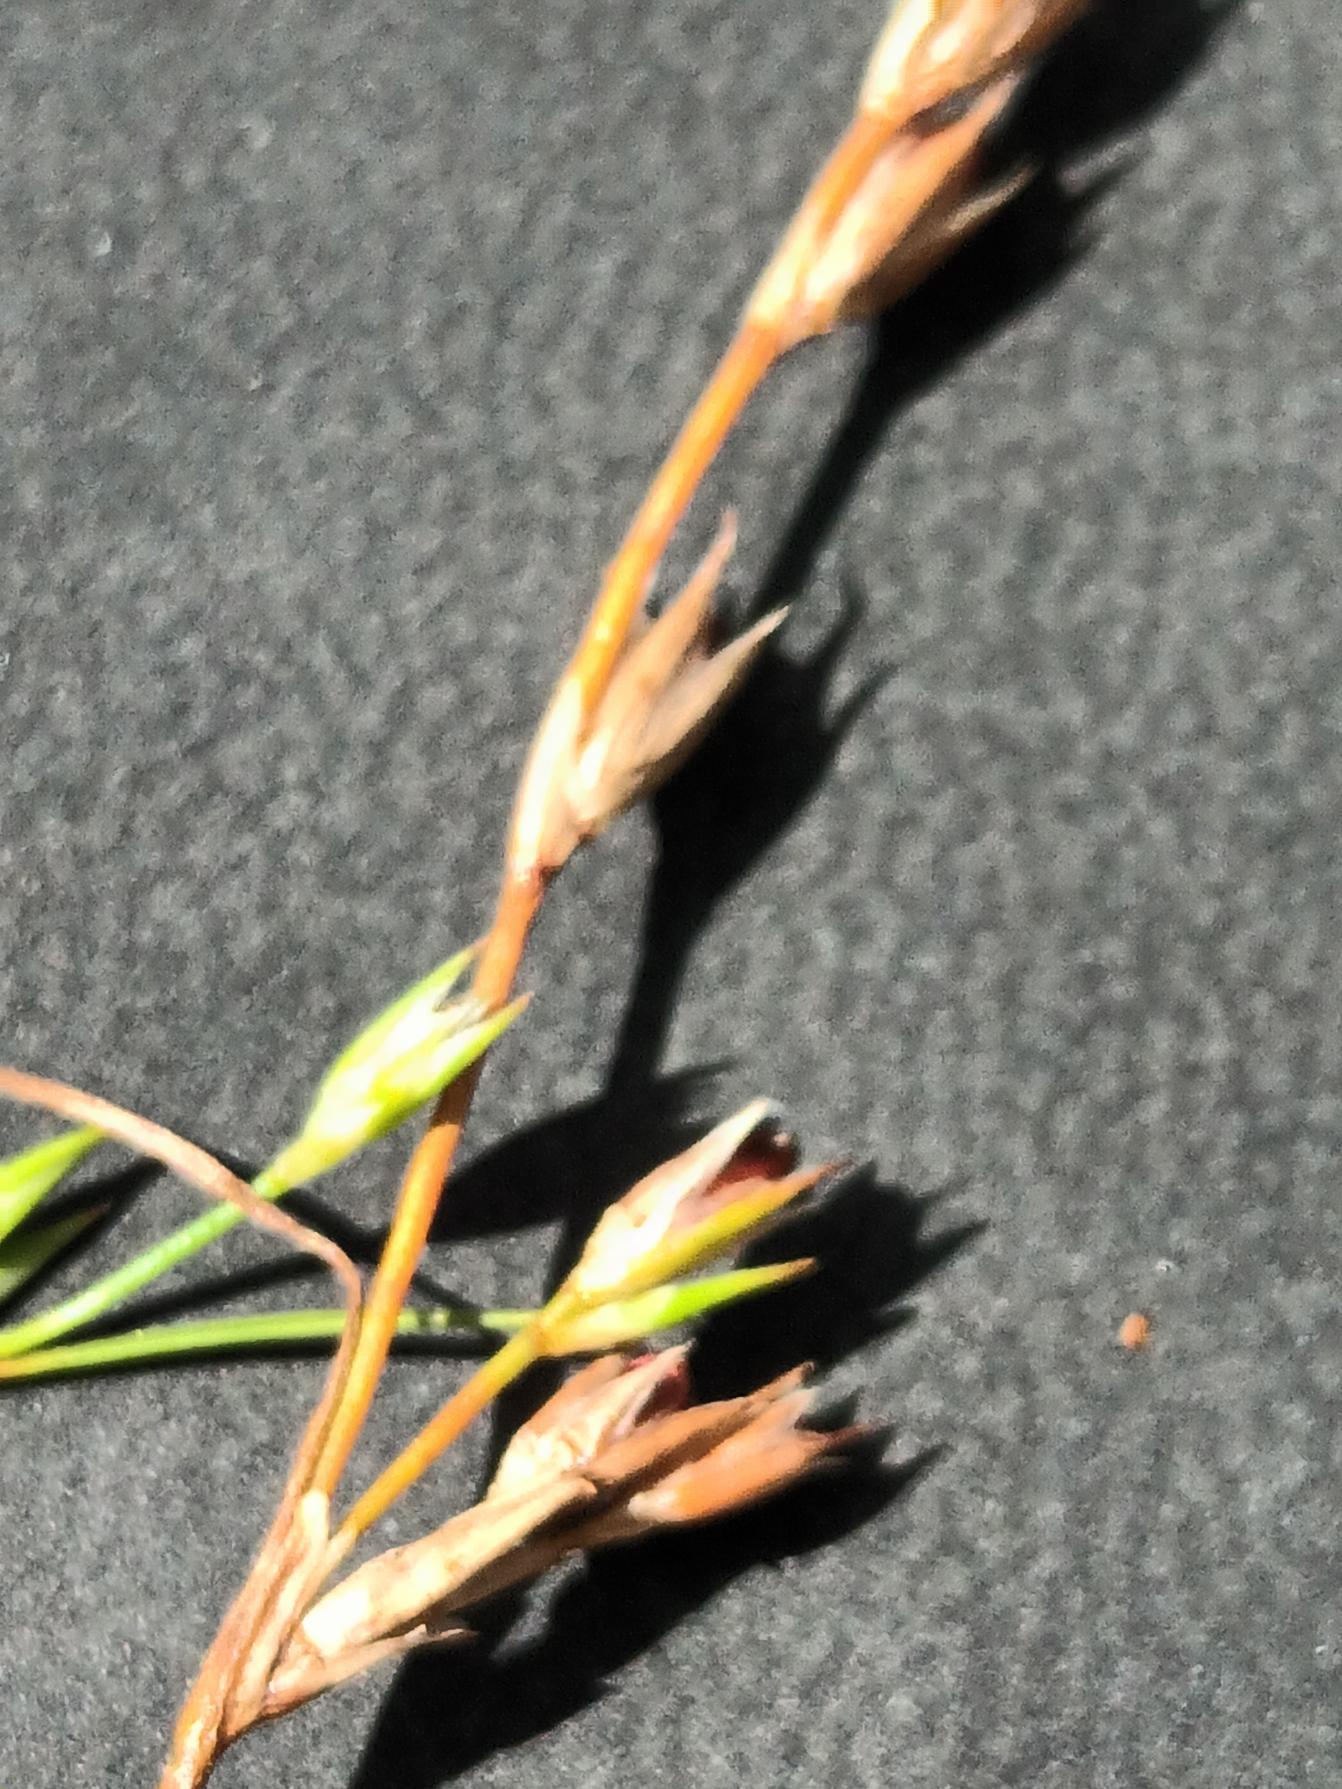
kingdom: Plantae
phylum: Tracheophyta
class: Liliopsida
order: Poales
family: Juncaceae
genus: Juncus
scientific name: Juncus minutulus
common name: Småblomstret siv
